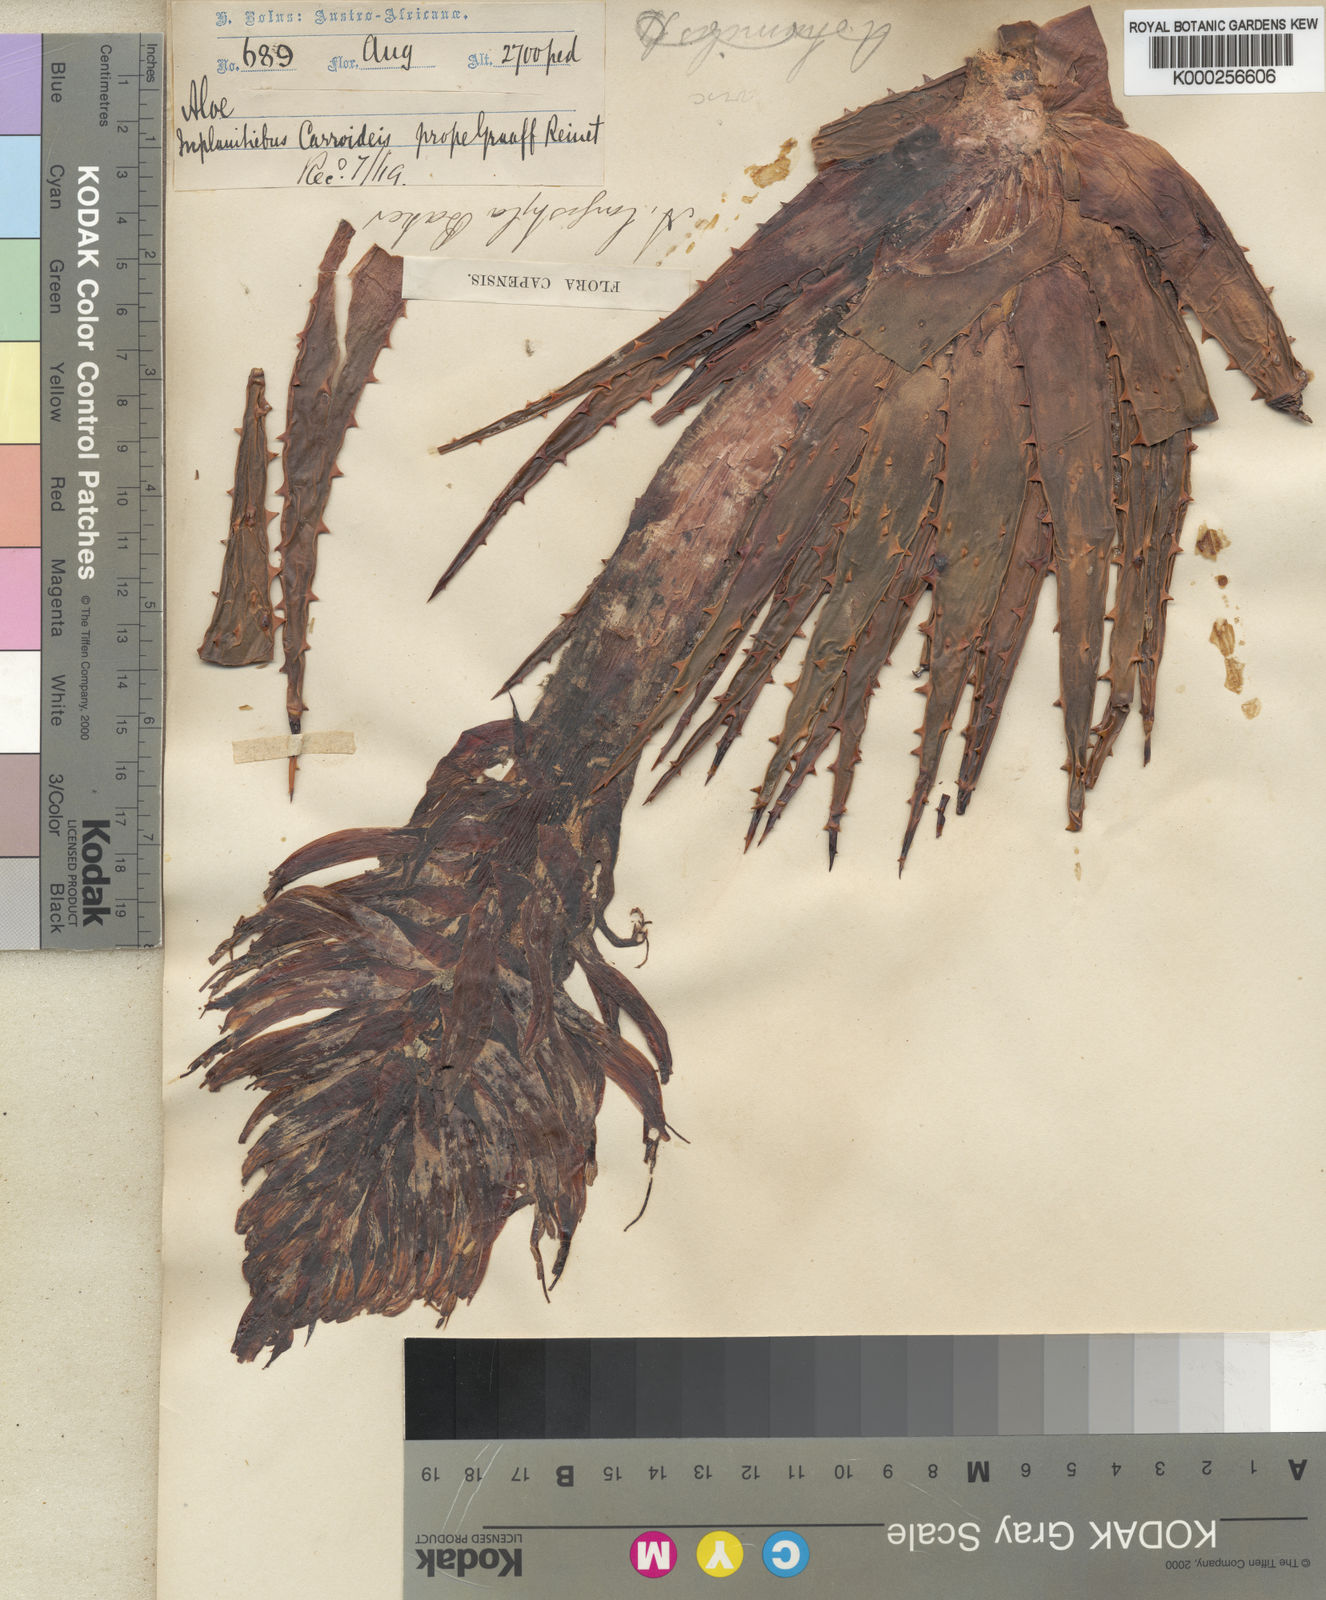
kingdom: Plantae
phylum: Tracheophyta
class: Liliopsida
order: Asparagales
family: Asphodelaceae
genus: Aloe
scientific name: Aloe longistyla
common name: Karoo aloe
